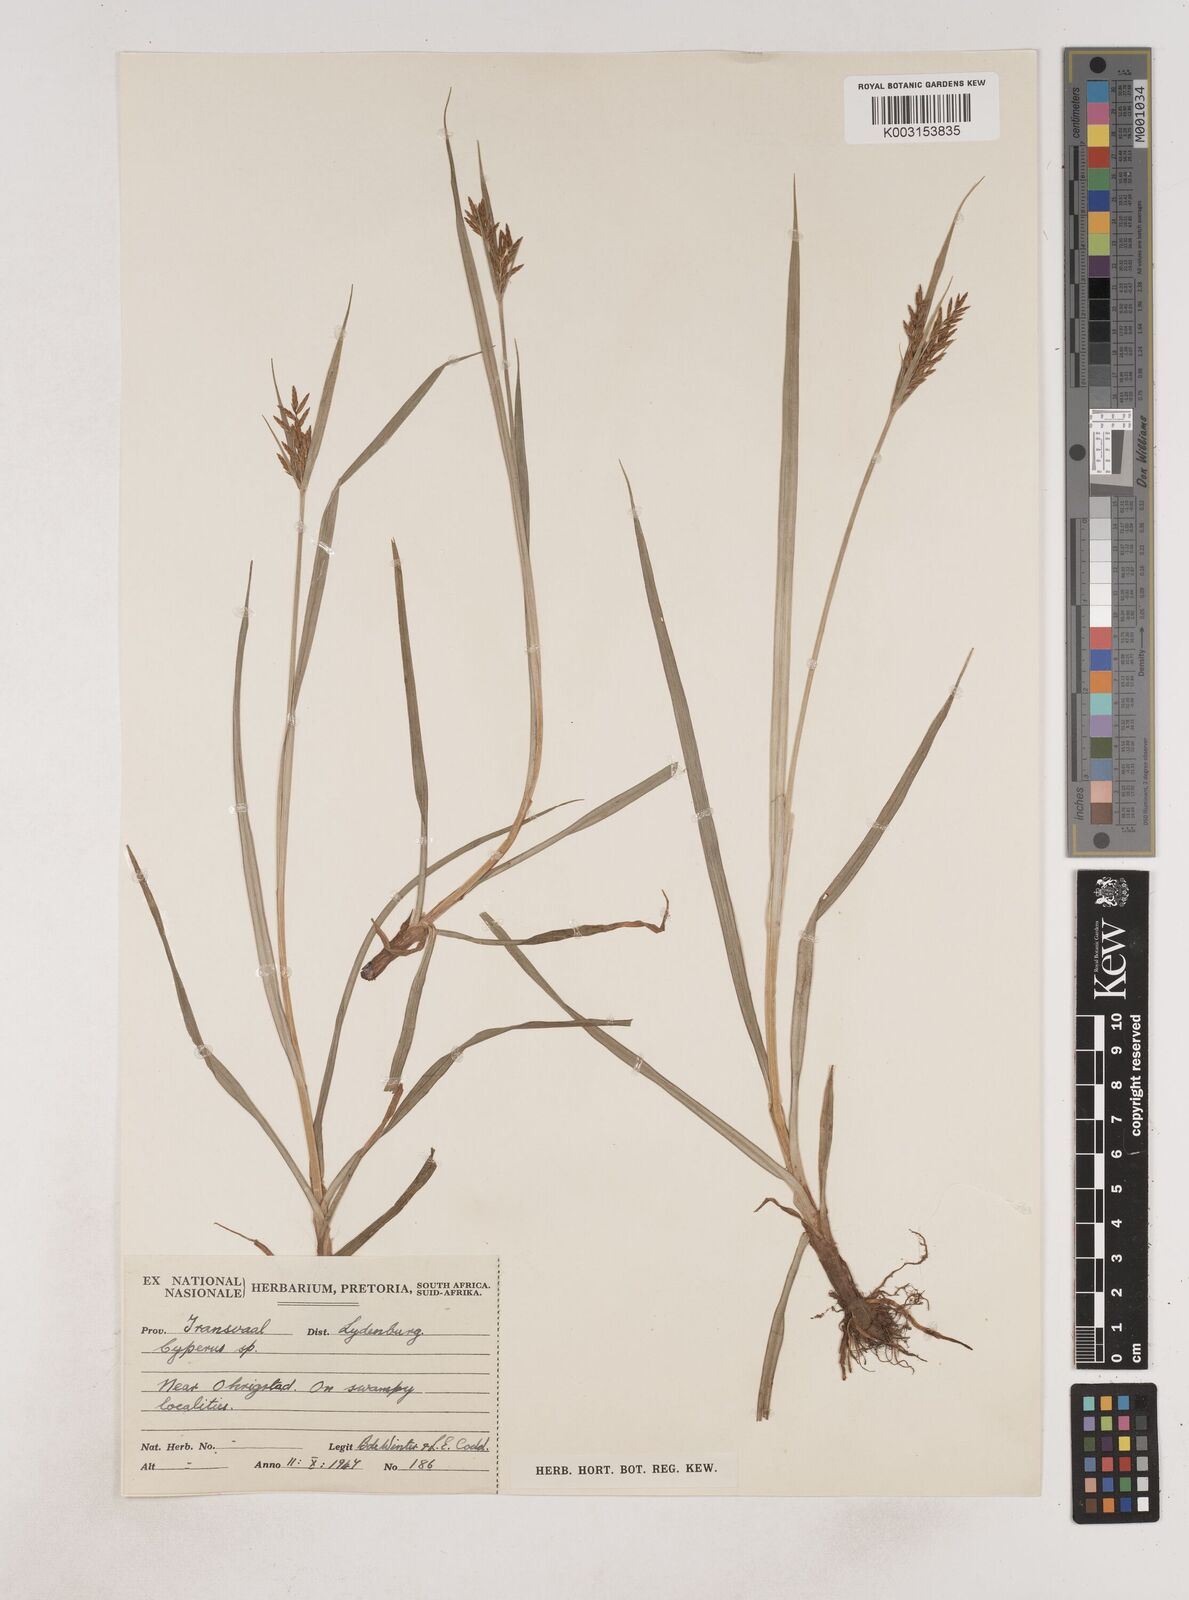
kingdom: Plantae
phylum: Tracheophyta
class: Liliopsida
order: Poales
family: Cyperaceae
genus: Cyperus
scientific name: Cyperus
